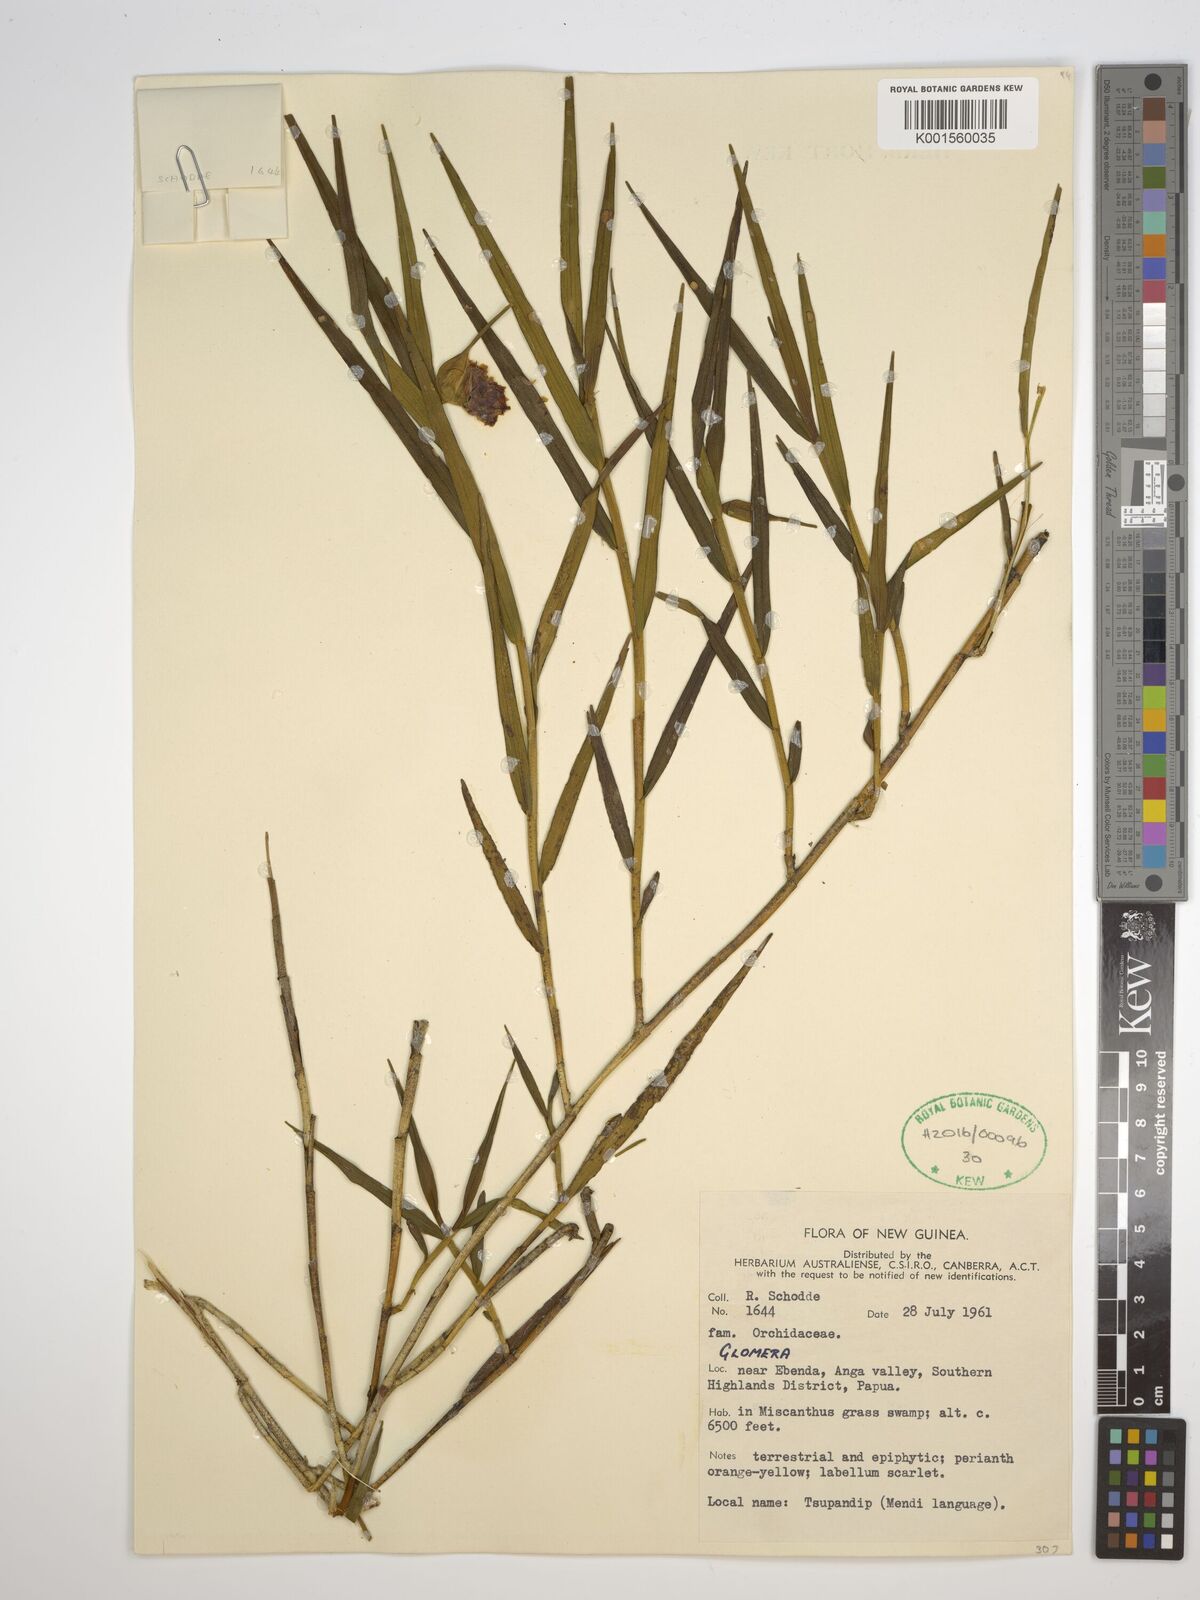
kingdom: Plantae
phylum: Tracheophyta
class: Liliopsida
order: Asparagales
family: Orchidaceae
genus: Glomera
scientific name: Glomera
